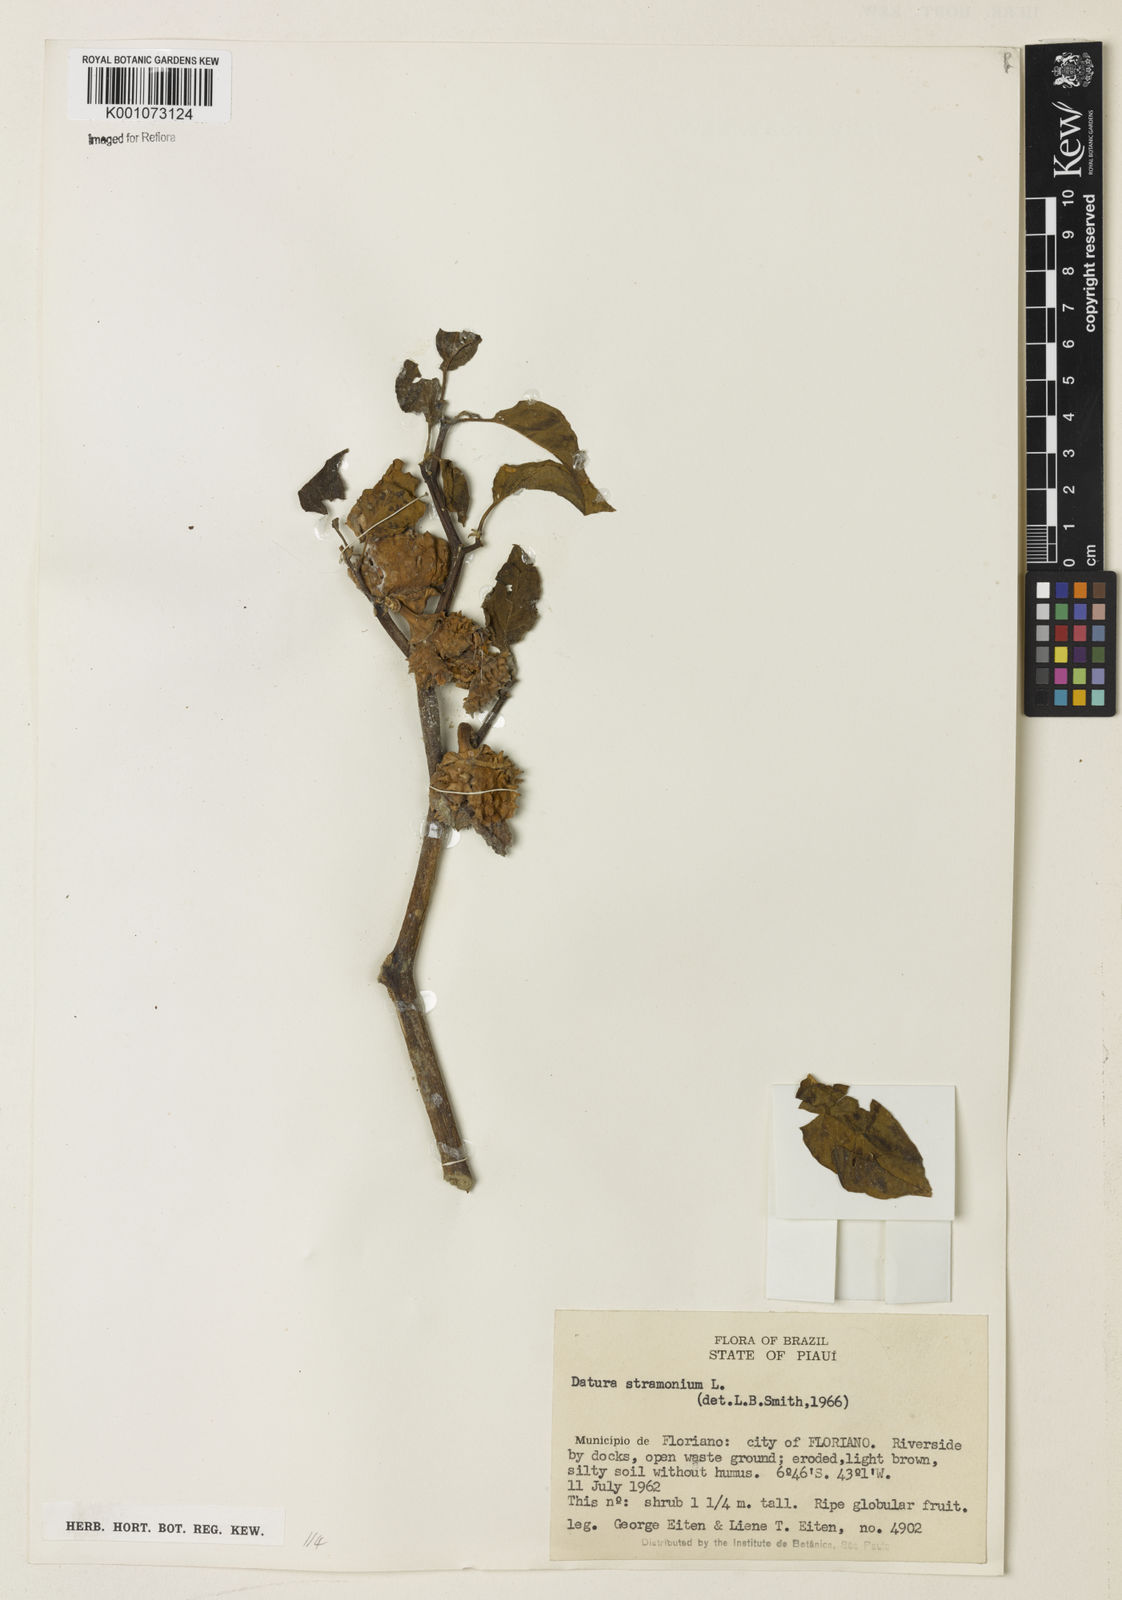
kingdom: Plantae
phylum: Tracheophyta
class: Magnoliopsida
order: Solanales
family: Solanaceae
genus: Datura
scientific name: Datura stramonium
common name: Thorn-apple
